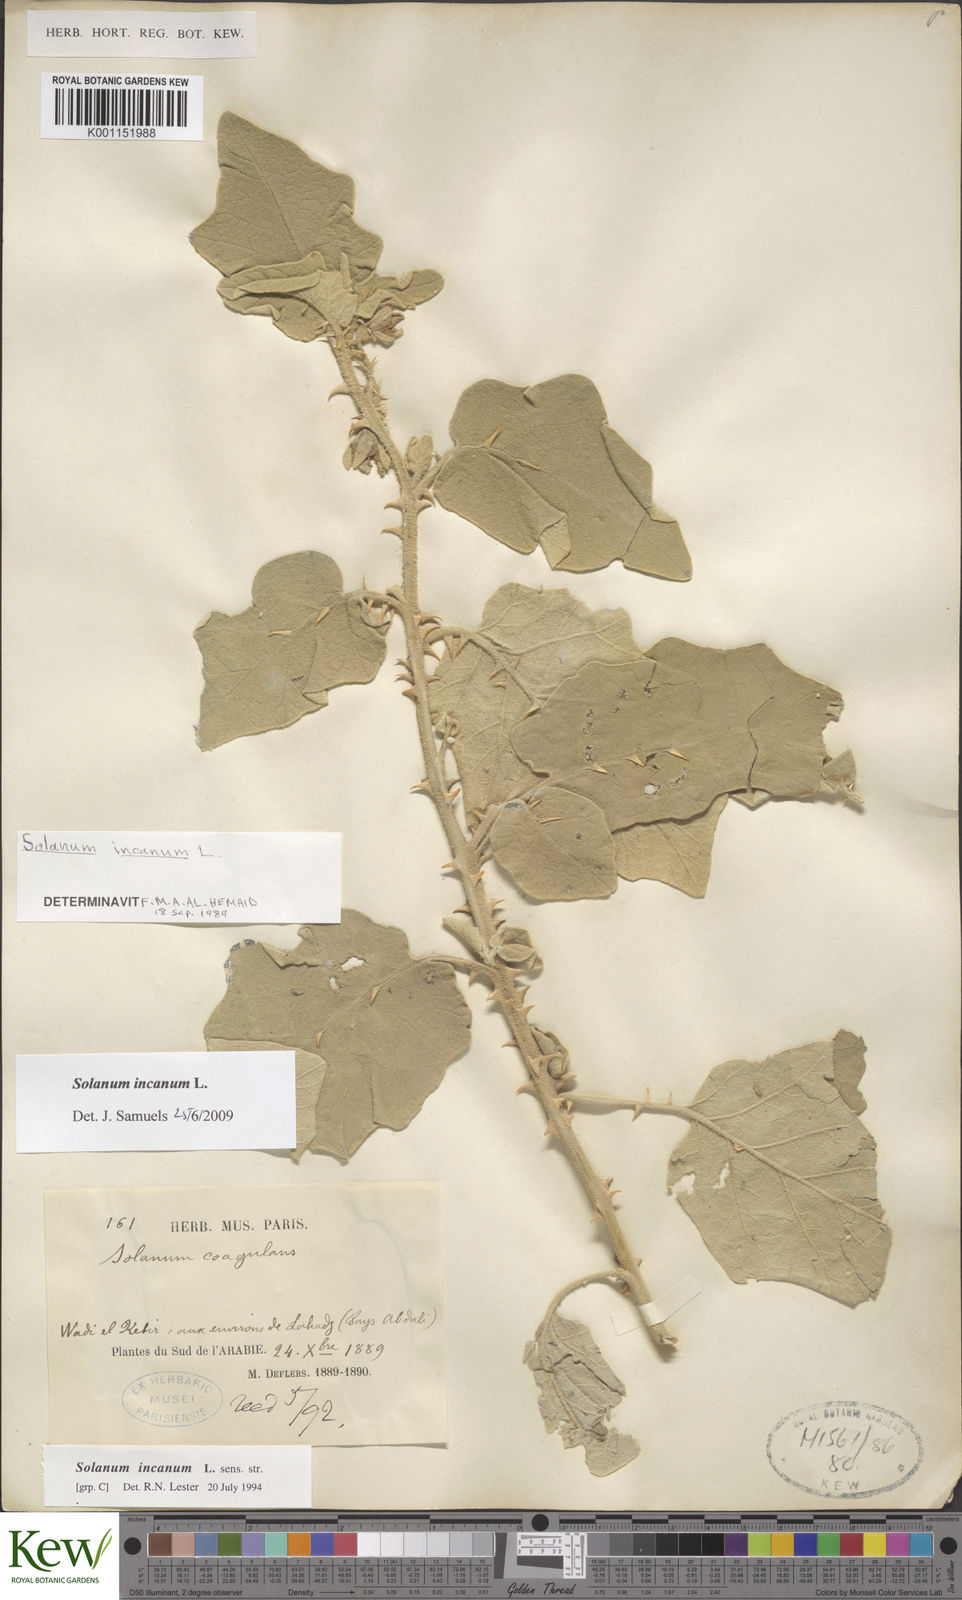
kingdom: Plantae
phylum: Tracheophyta
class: Magnoliopsida
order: Solanales
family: Solanaceae
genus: Solanum
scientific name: Solanum incanum
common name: Bitter apple
